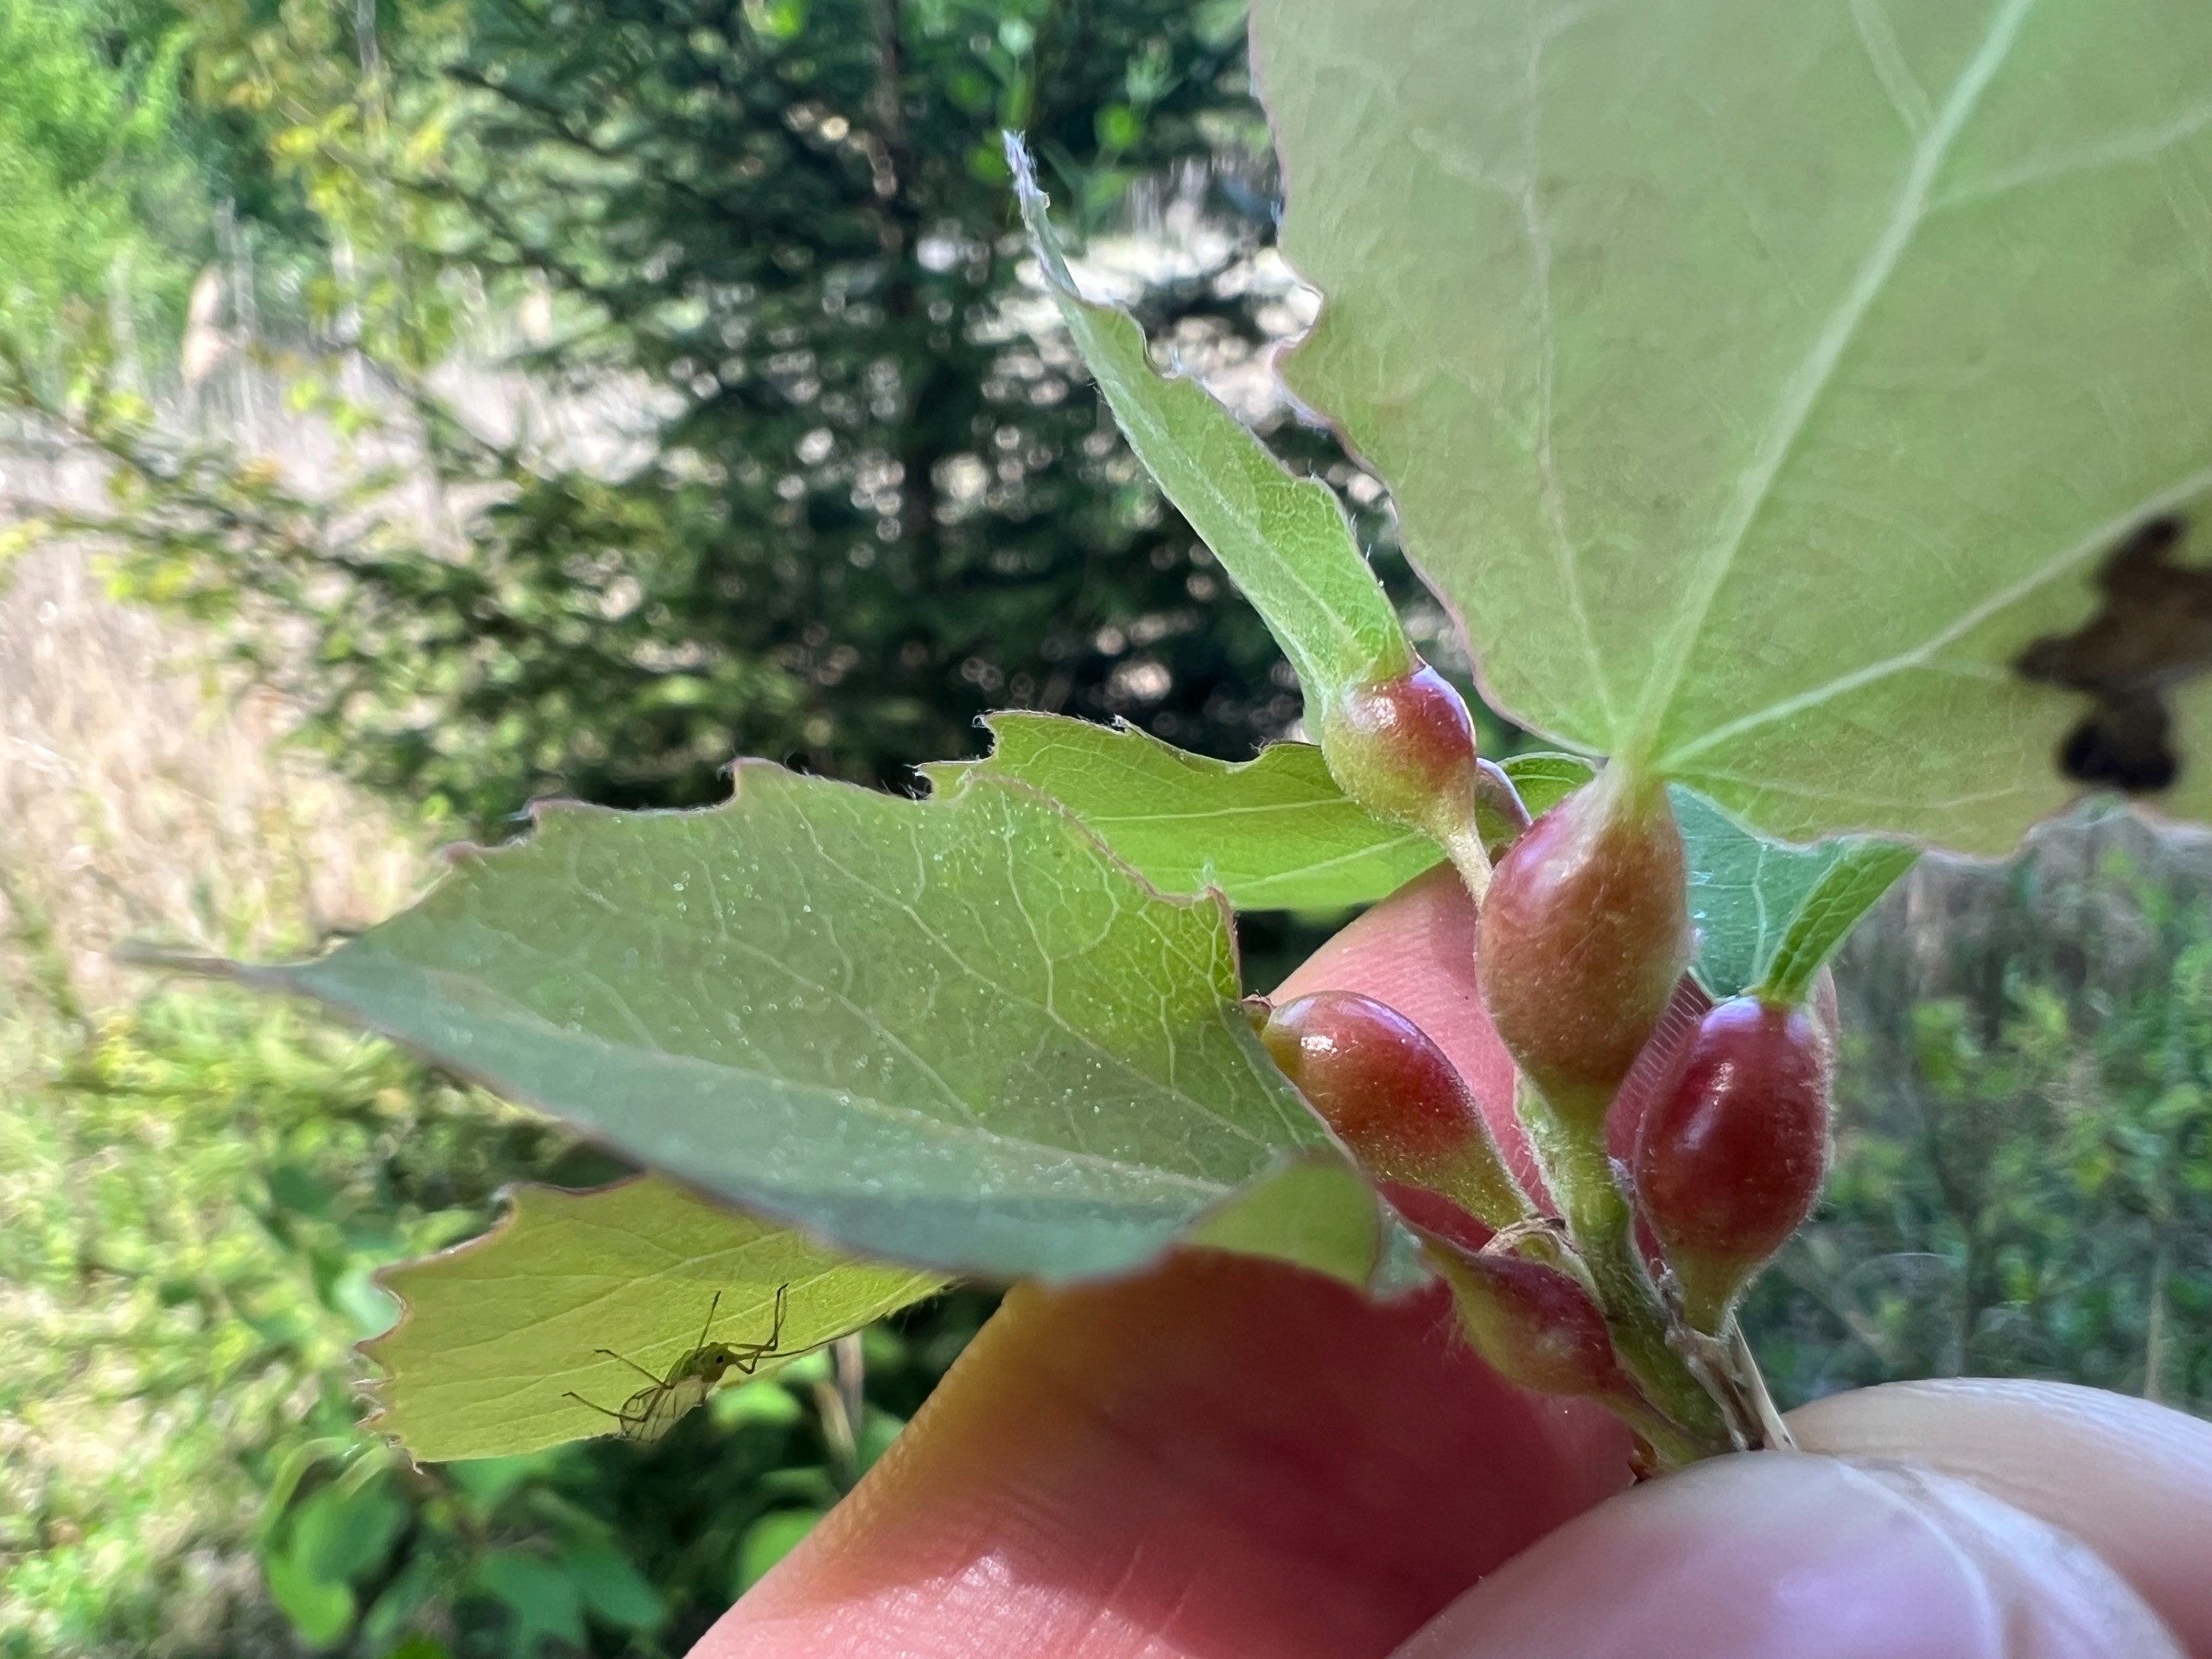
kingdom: Animalia
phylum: Arthropoda
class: Insecta
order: Diptera
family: Cecidomyiidae
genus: Contarinia
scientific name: Contarinia petioli
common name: Aspestilkgalmyg
